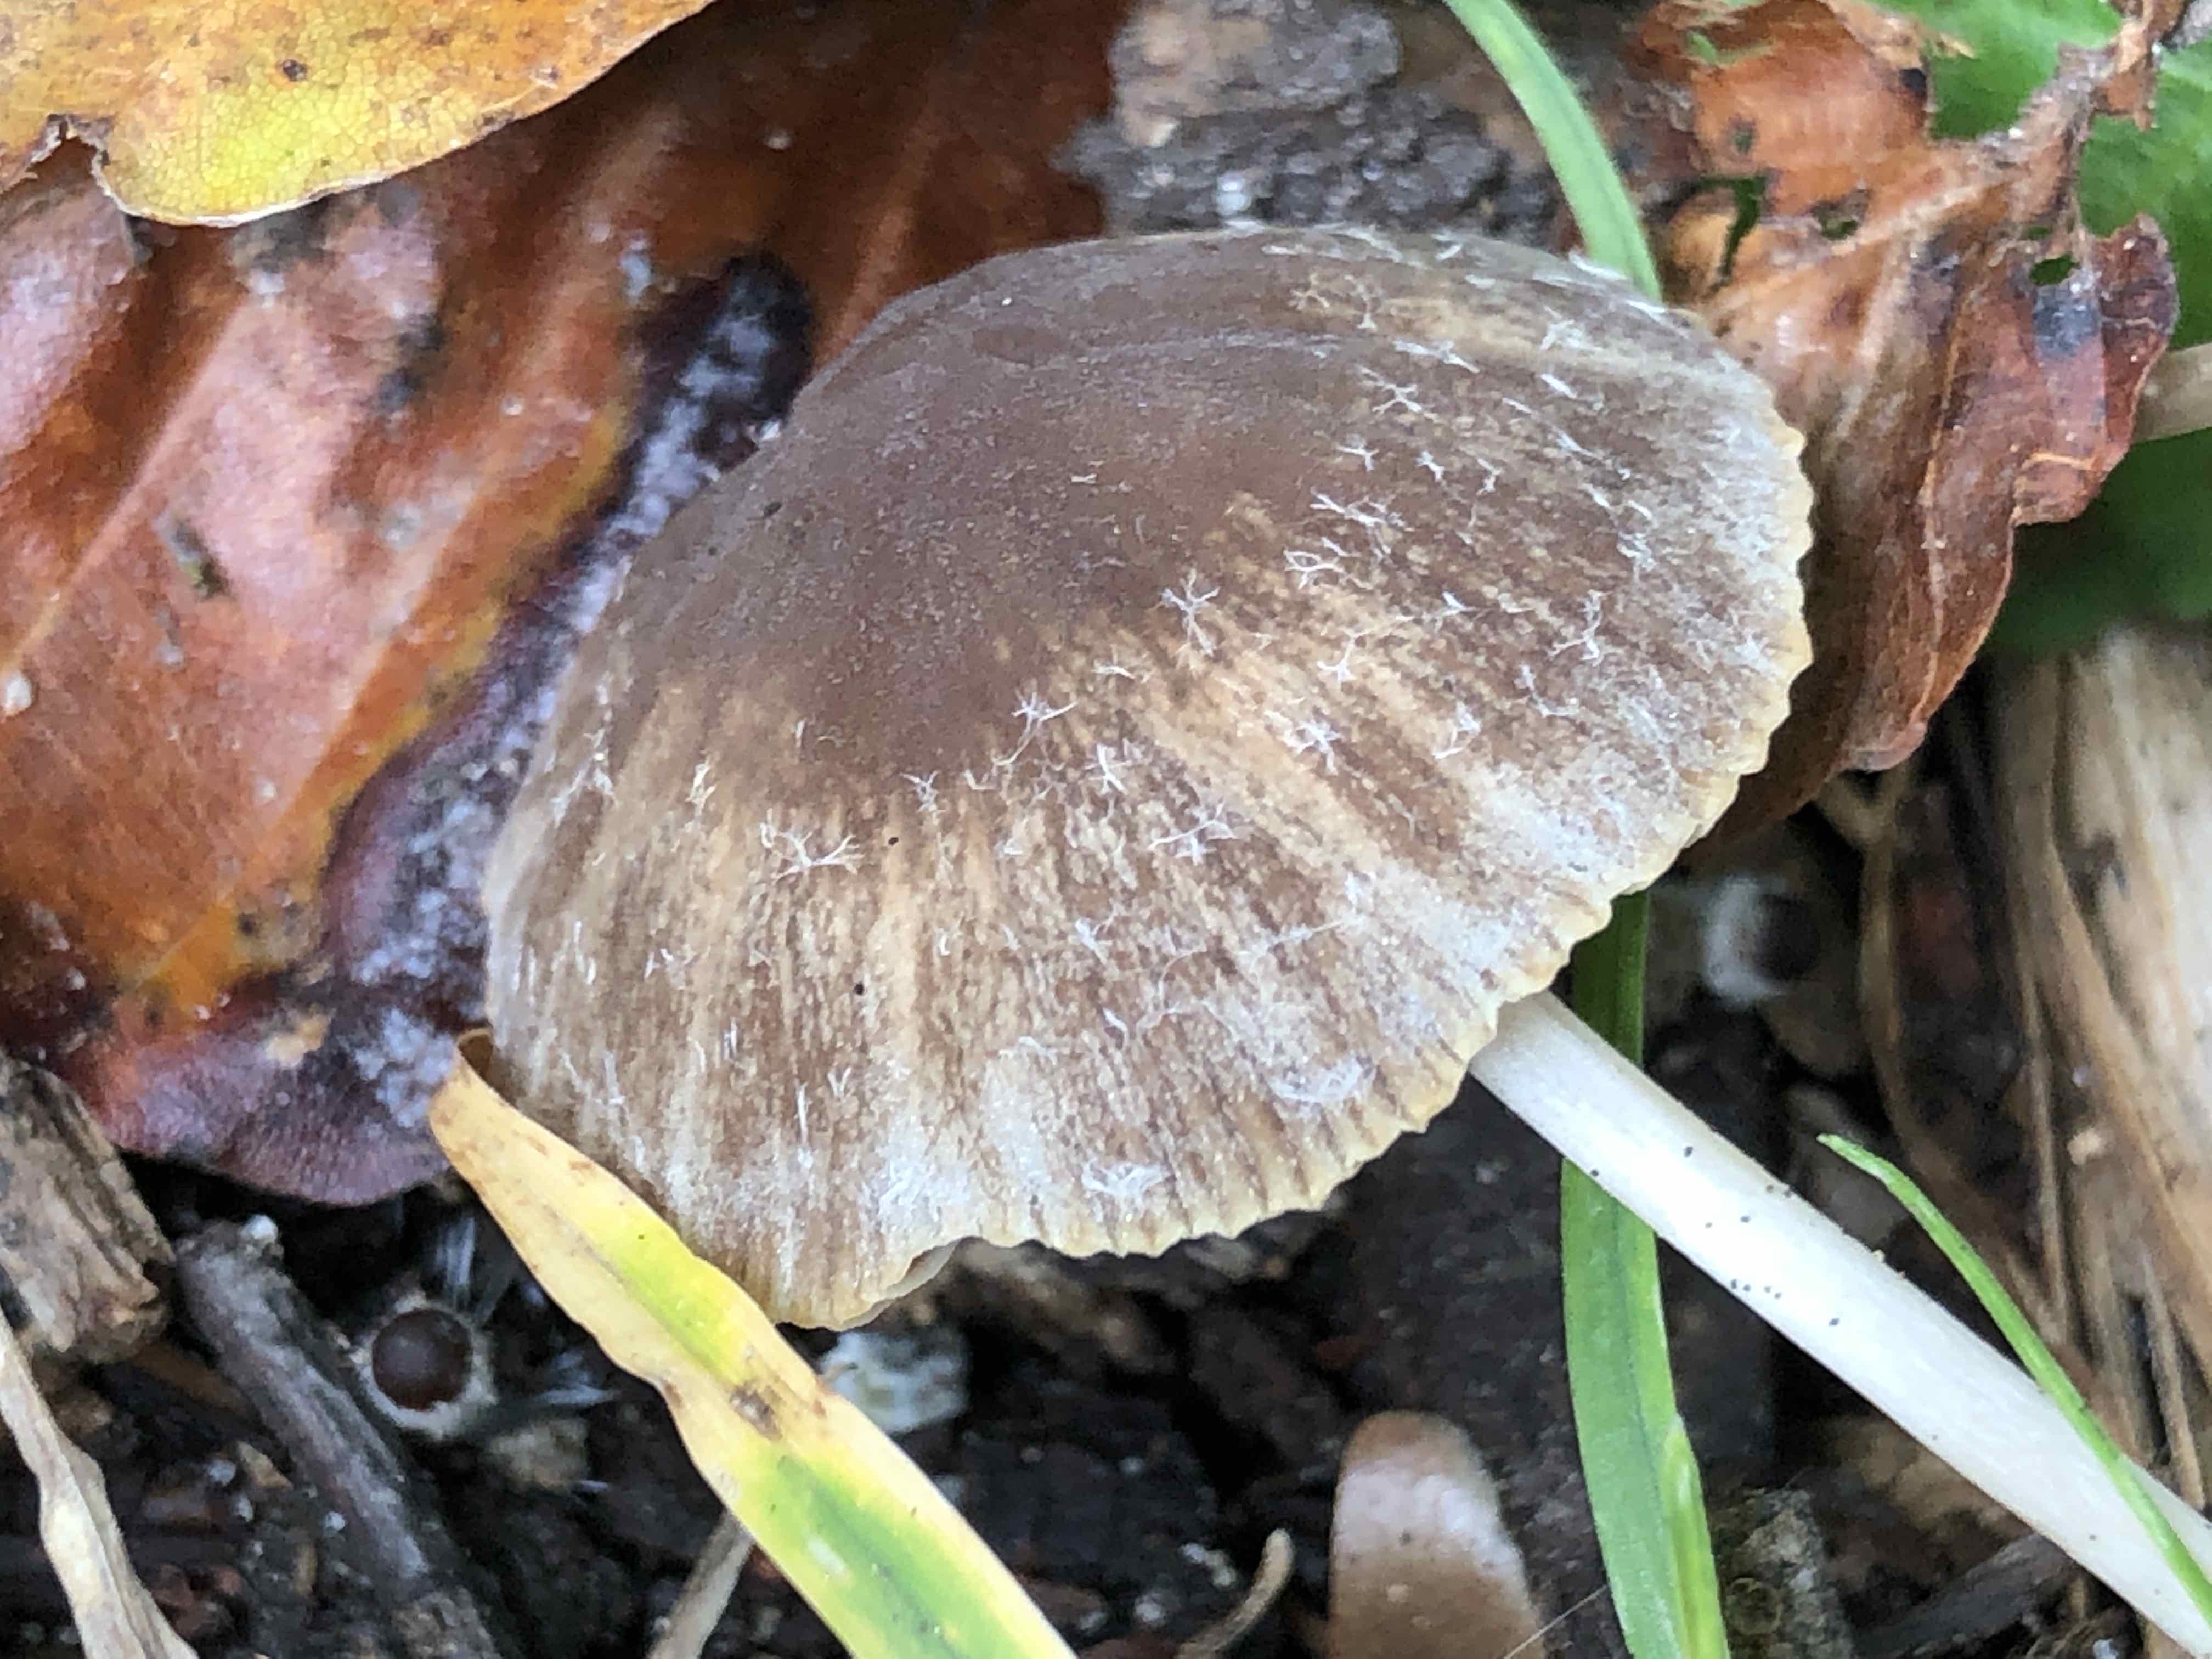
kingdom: Fungi
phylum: Basidiomycota
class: Agaricomycetes
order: Agaricales
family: Psathyrellaceae
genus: Psathyrella
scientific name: Psathyrella
